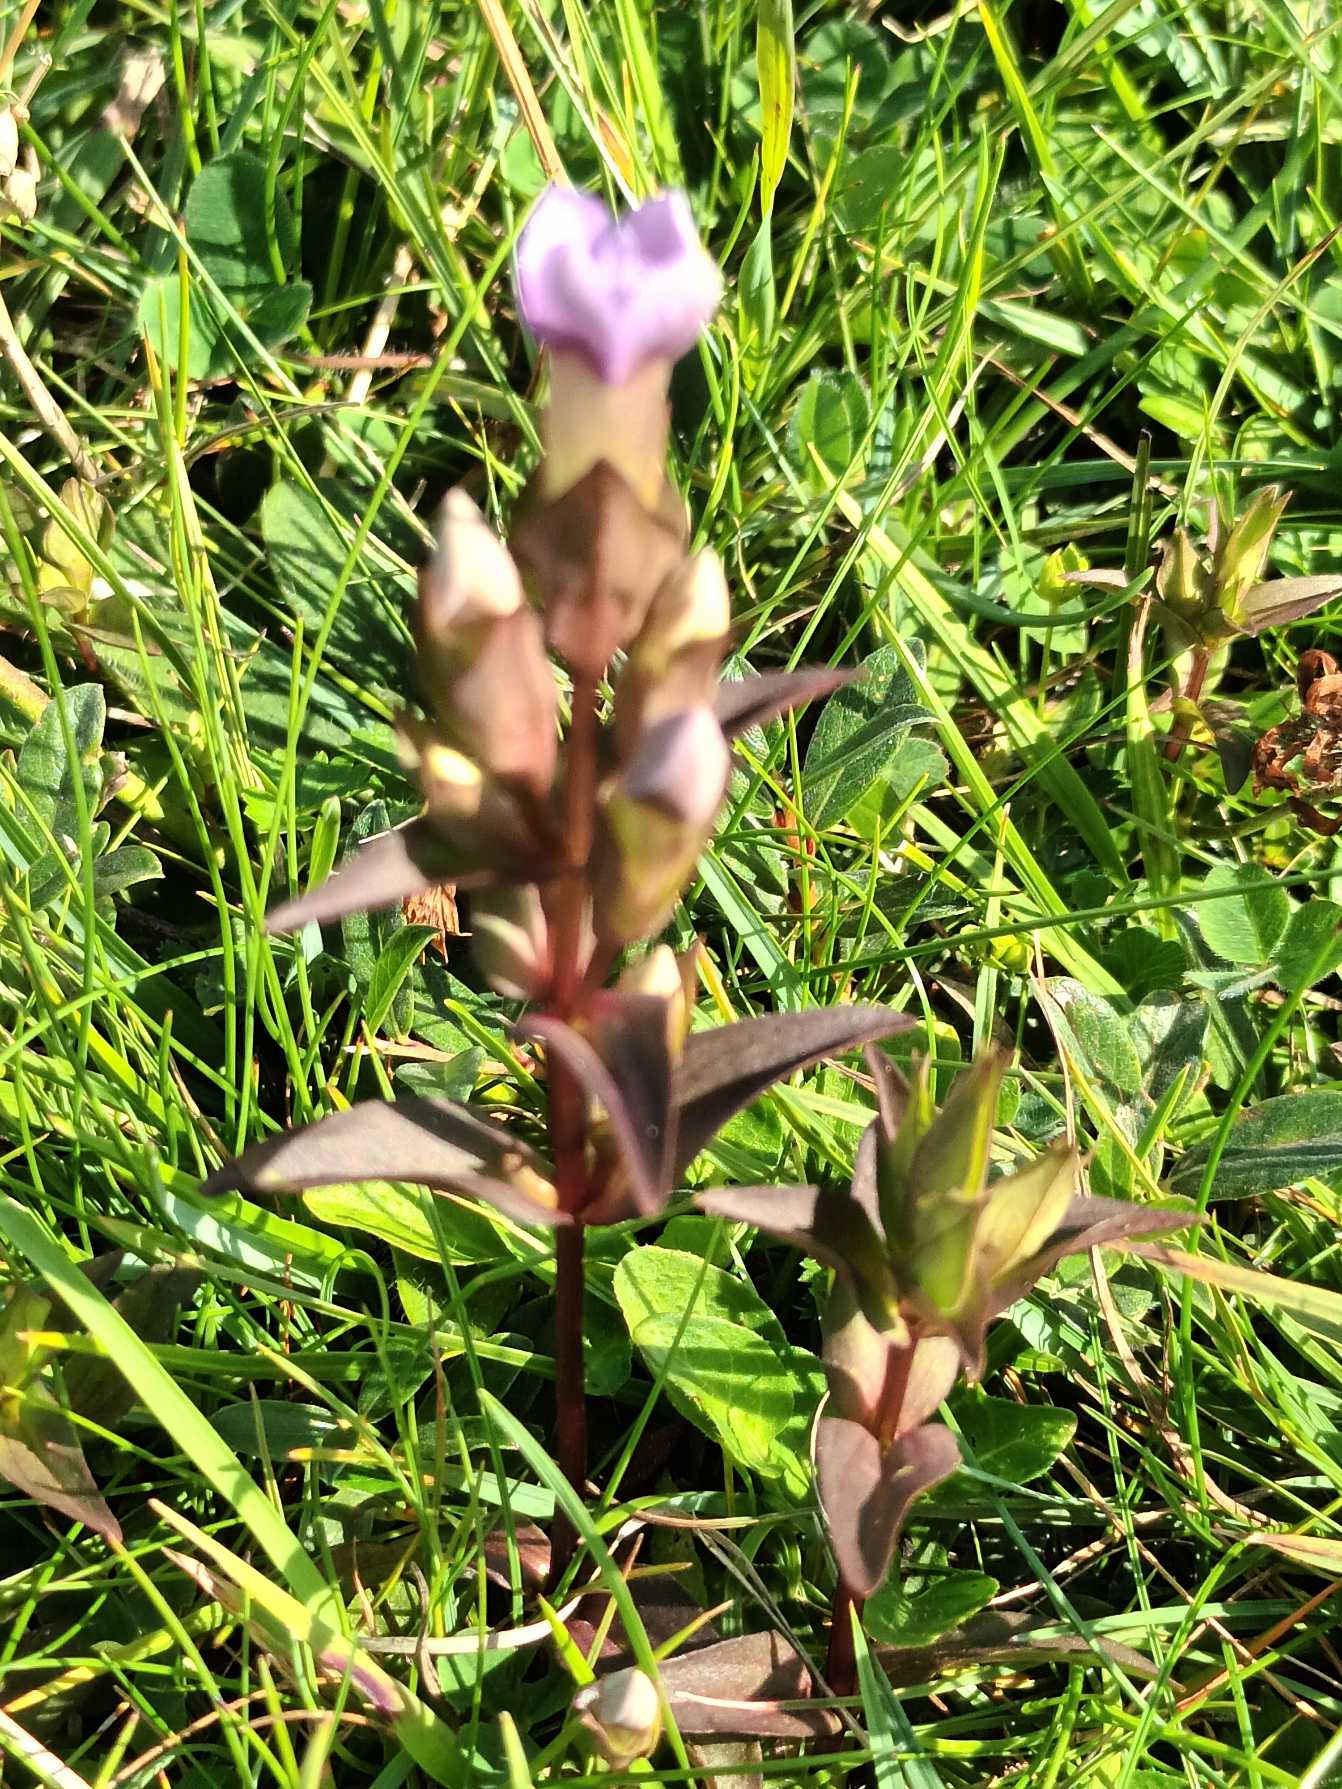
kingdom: Plantae
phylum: Tracheophyta
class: Magnoliopsida
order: Gentianales
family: Gentianaceae
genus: Gentianella
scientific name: Gentianella campestris
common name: Baltisk ensian
